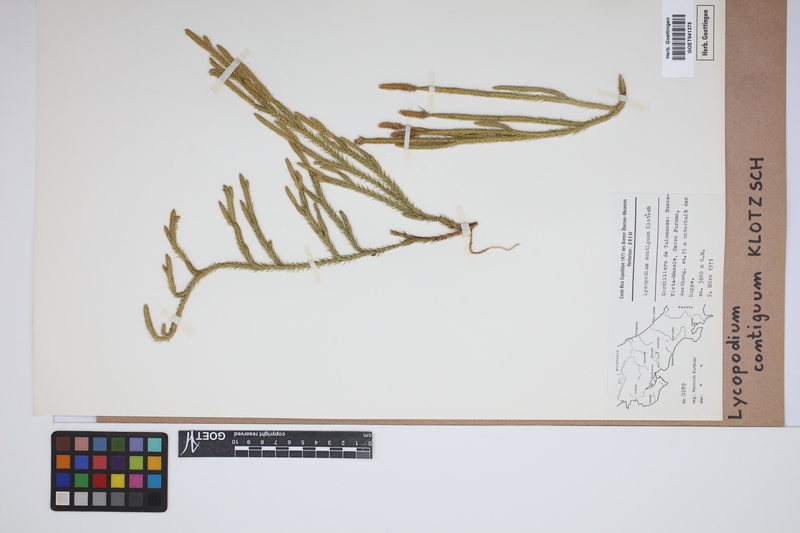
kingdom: Plantae
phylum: Tracheophyta
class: Lycopodiopsida
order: Lycopodiales
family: Lycopodiaceae
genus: Lycopodium
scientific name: Lycopodium clavatum
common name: Stag's-horn clubmoss
